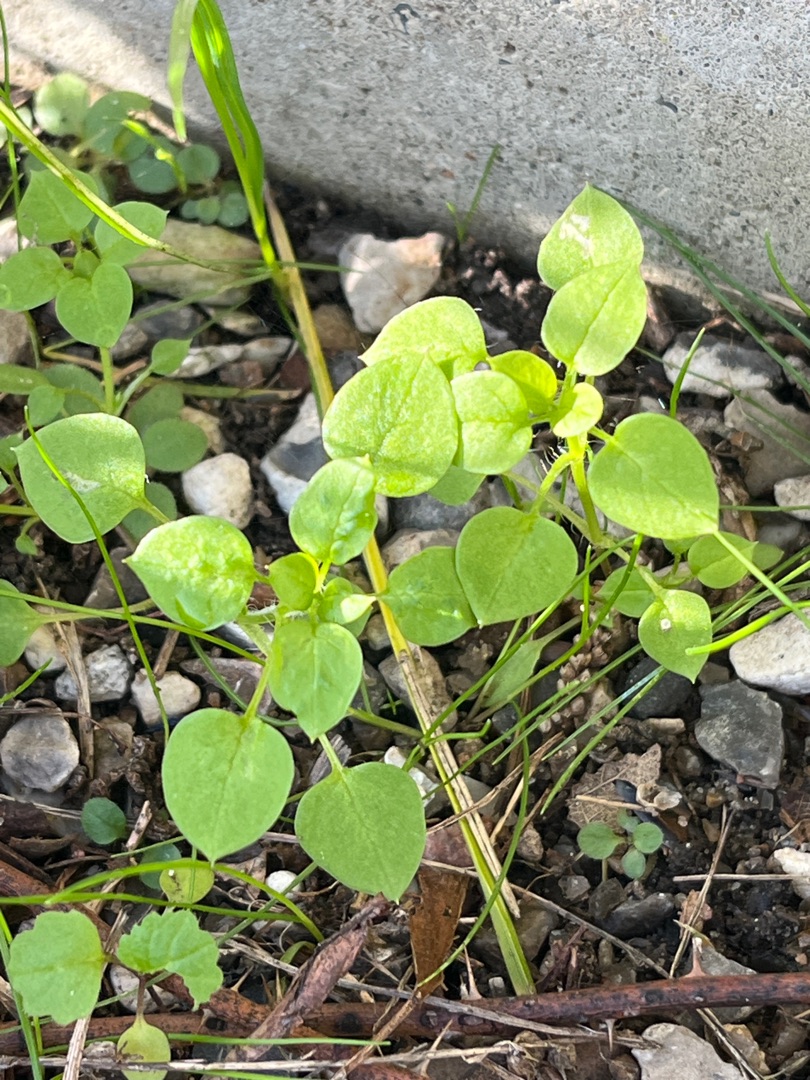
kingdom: Plantae
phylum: Tracheophyta
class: Magnoliopsida
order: Caryophyllales
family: Caryophyllaceae
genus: Stellaria
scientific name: Stellaria media
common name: Almindelig fuglegræs
